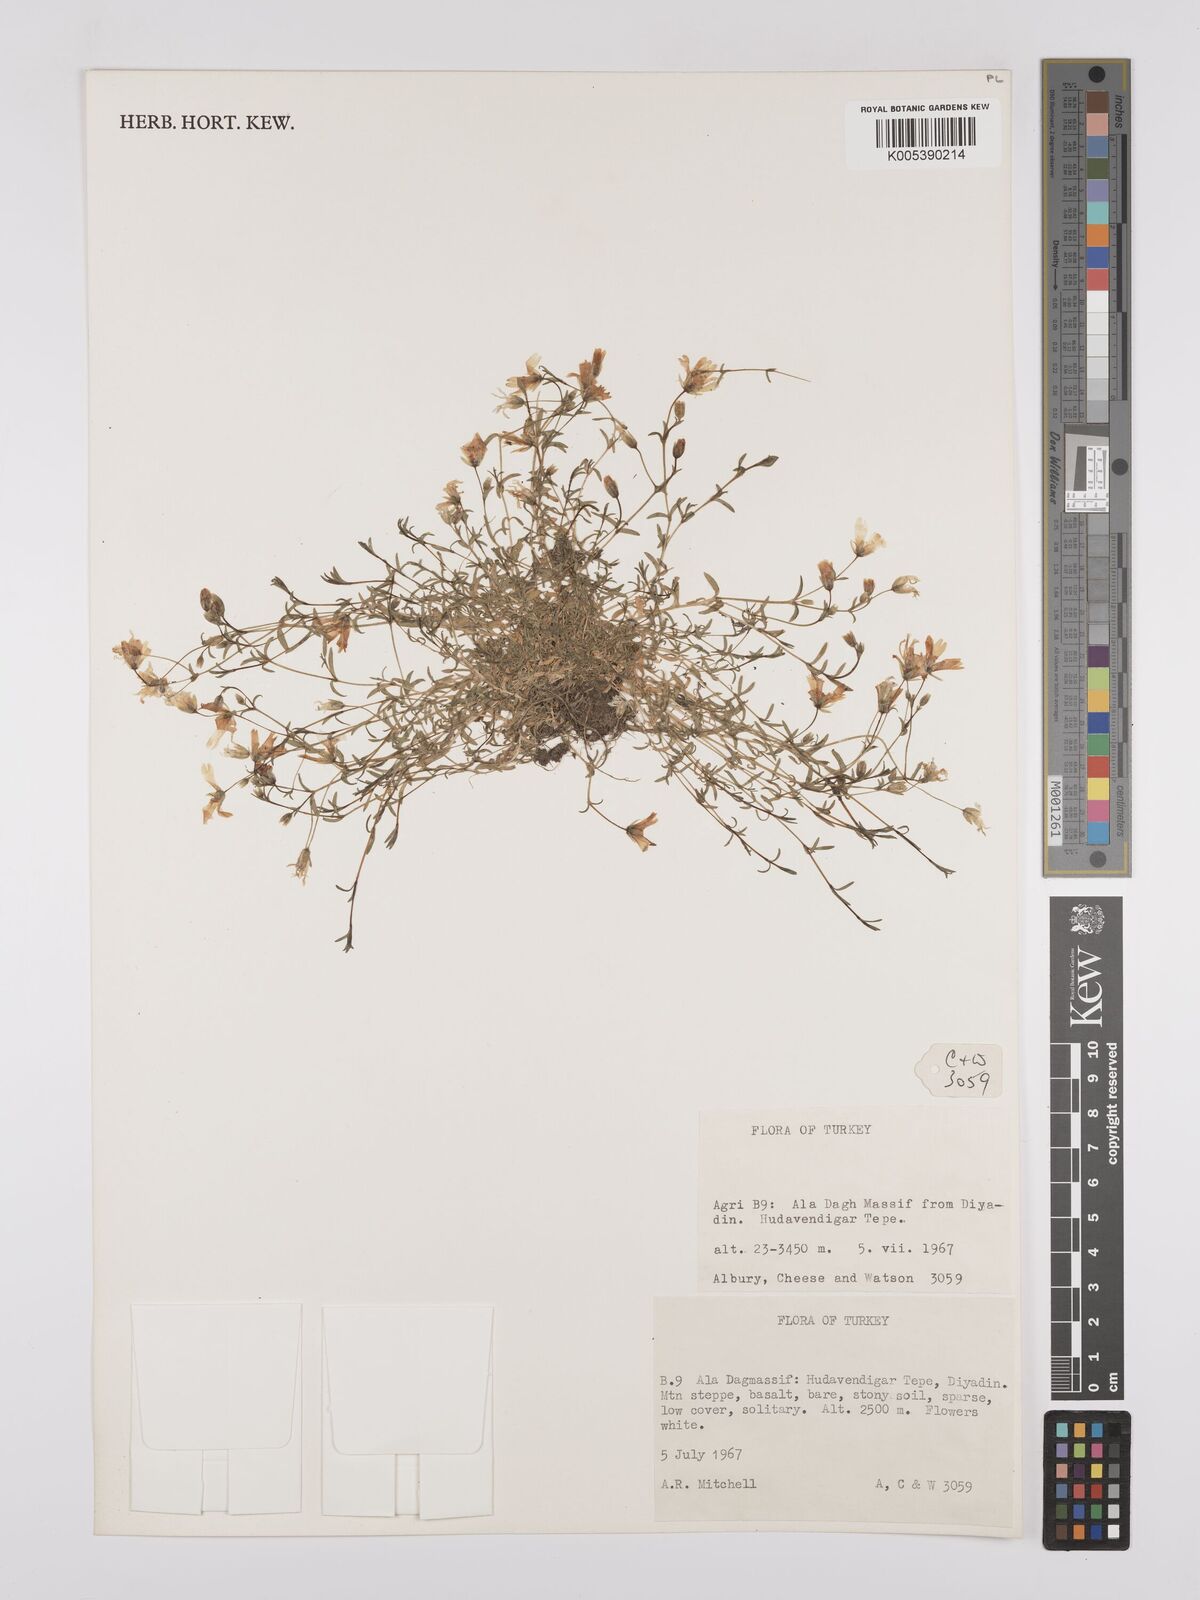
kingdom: Plantae
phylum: Tracheophyta
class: Magnoliopsida
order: Caryophyllales
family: Caryophyllaceae
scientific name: Caryophyllaceae
